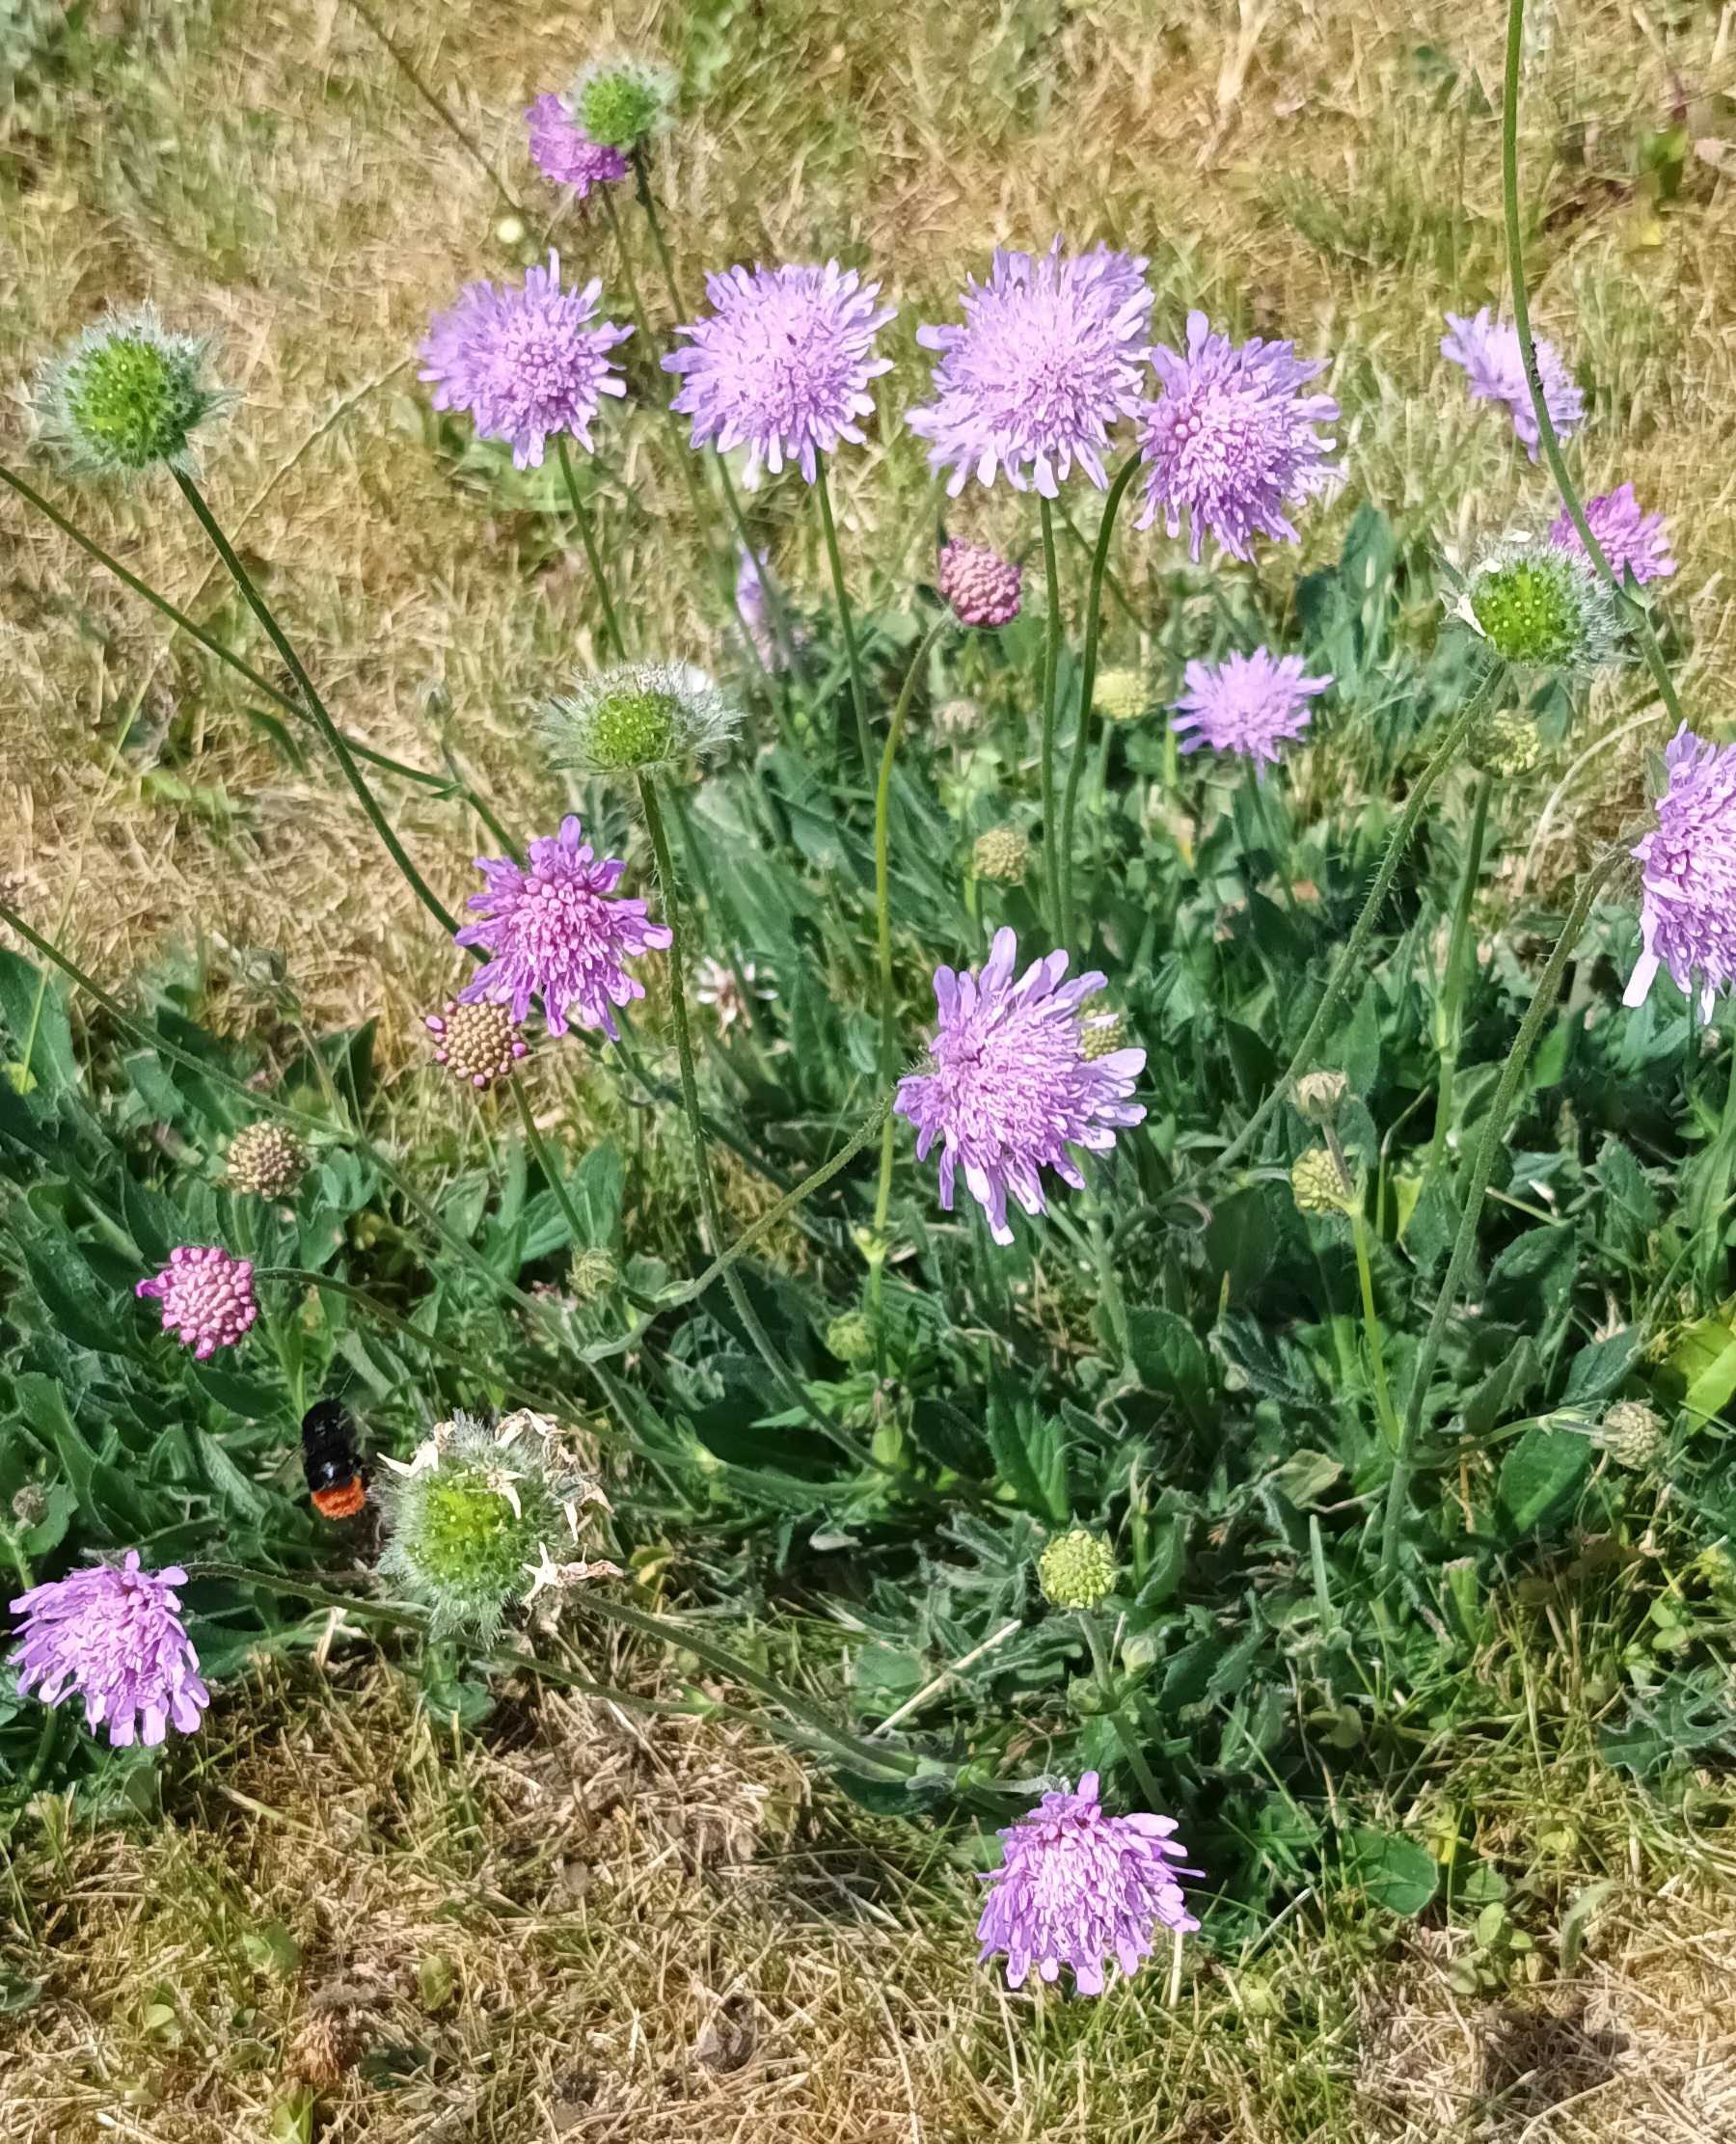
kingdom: Plantae
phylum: Tracheophyta
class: Magnoliopsida
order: Dipsacales
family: Caprifoliaceae
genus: Knautia
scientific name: Knautia arvensis
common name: Blåhat
